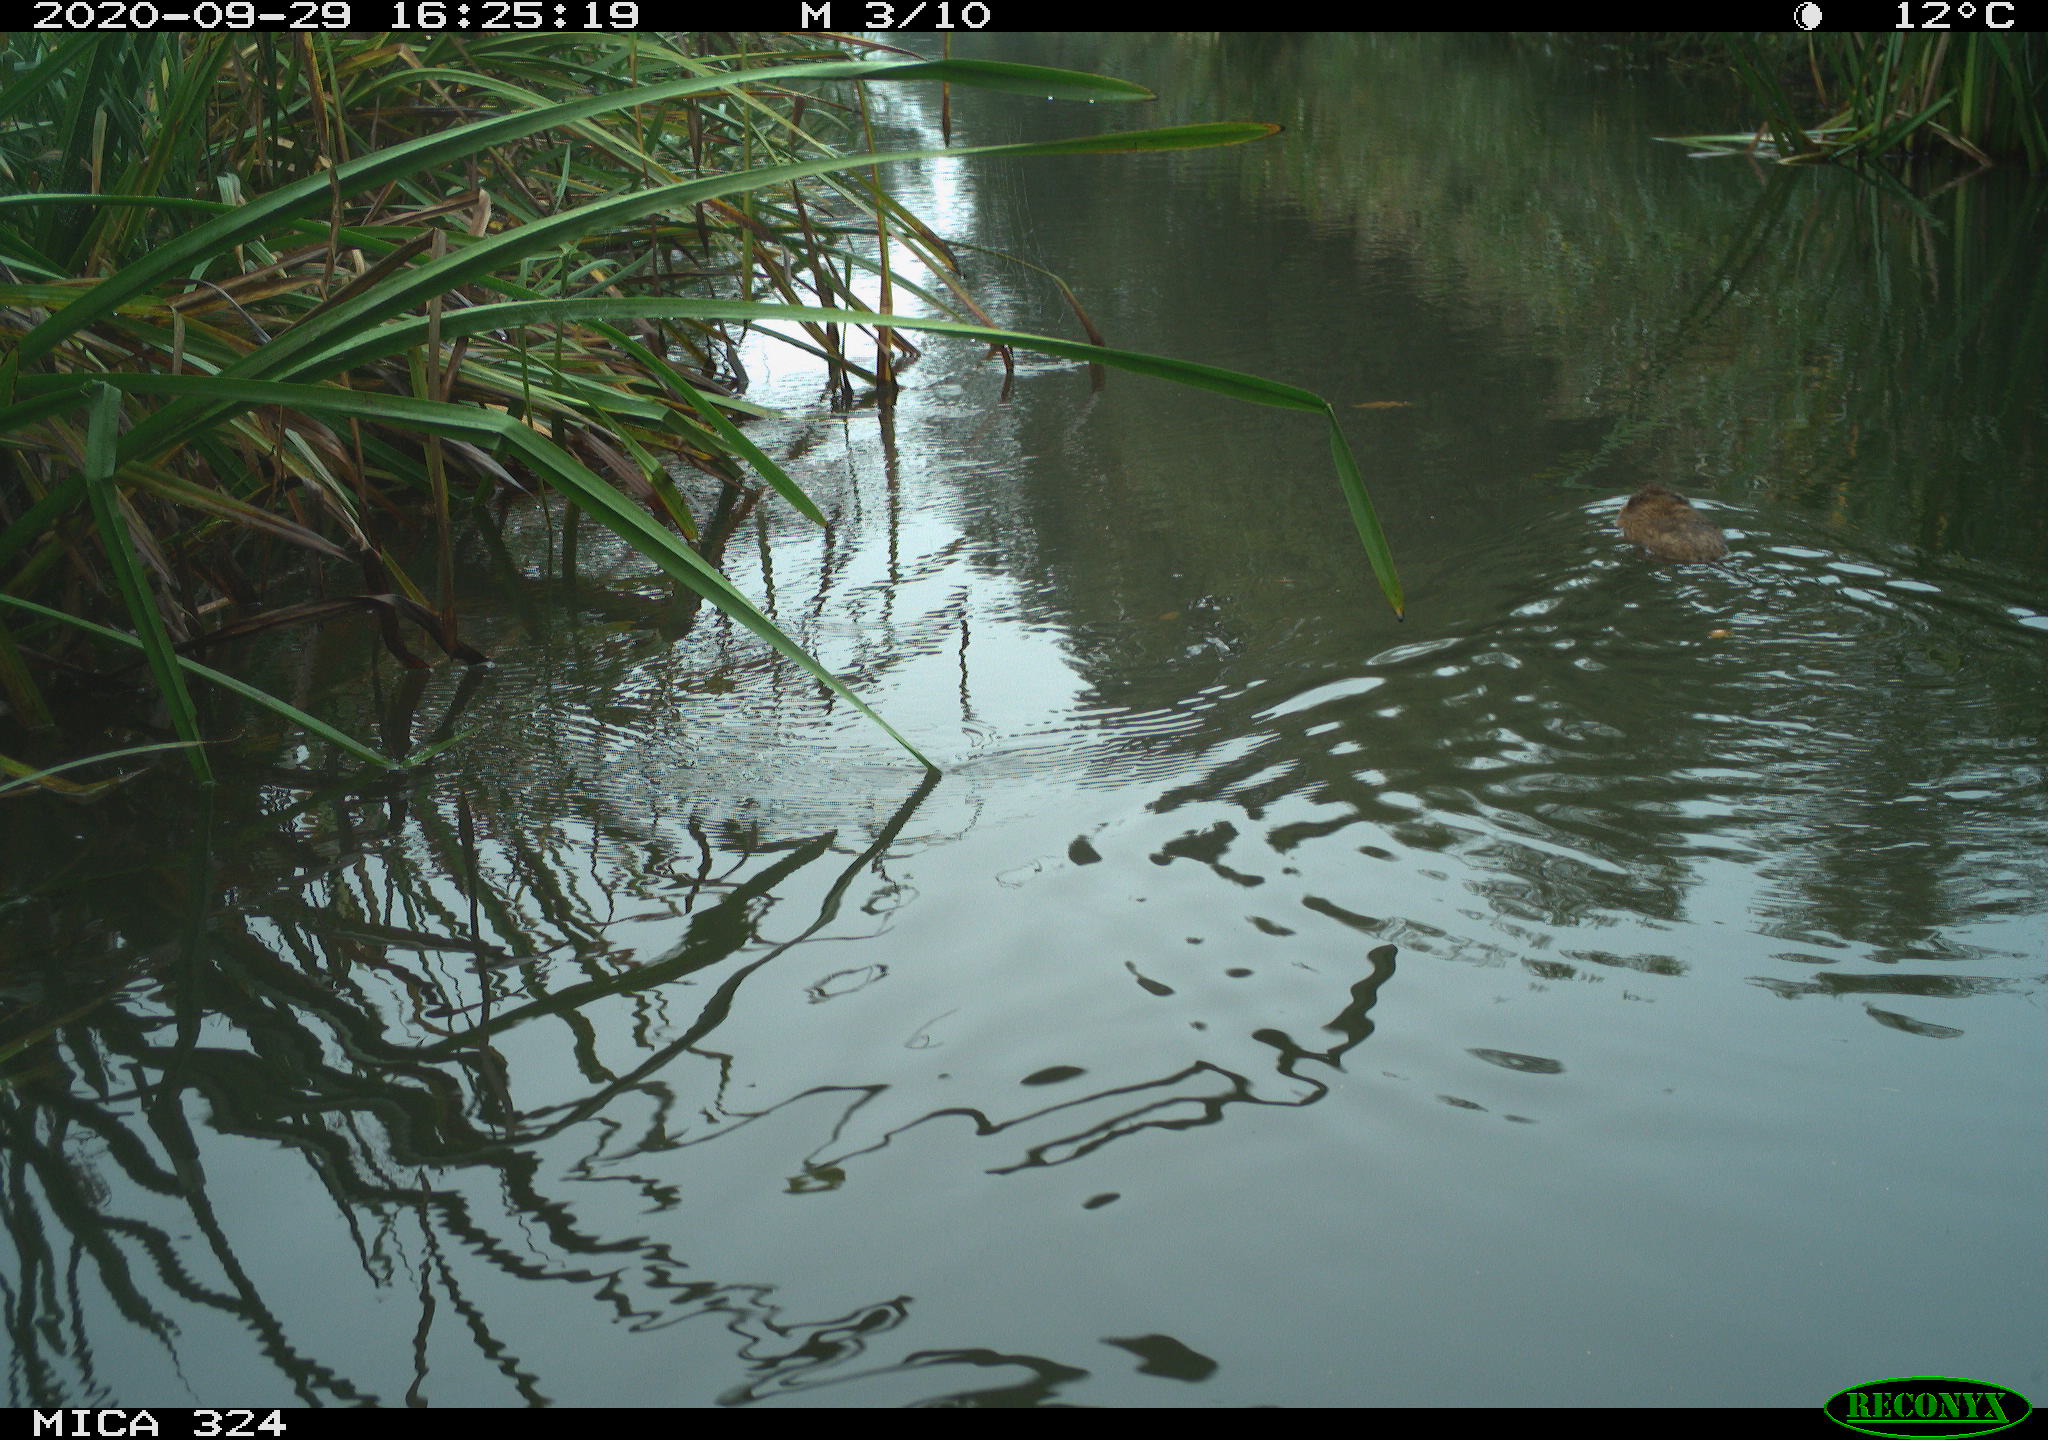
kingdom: Animalia
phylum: Chordata
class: Mammalia
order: Rodentia
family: Cricetidae
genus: Ondatra
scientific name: Ondatra zibethicus
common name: Muskrat
